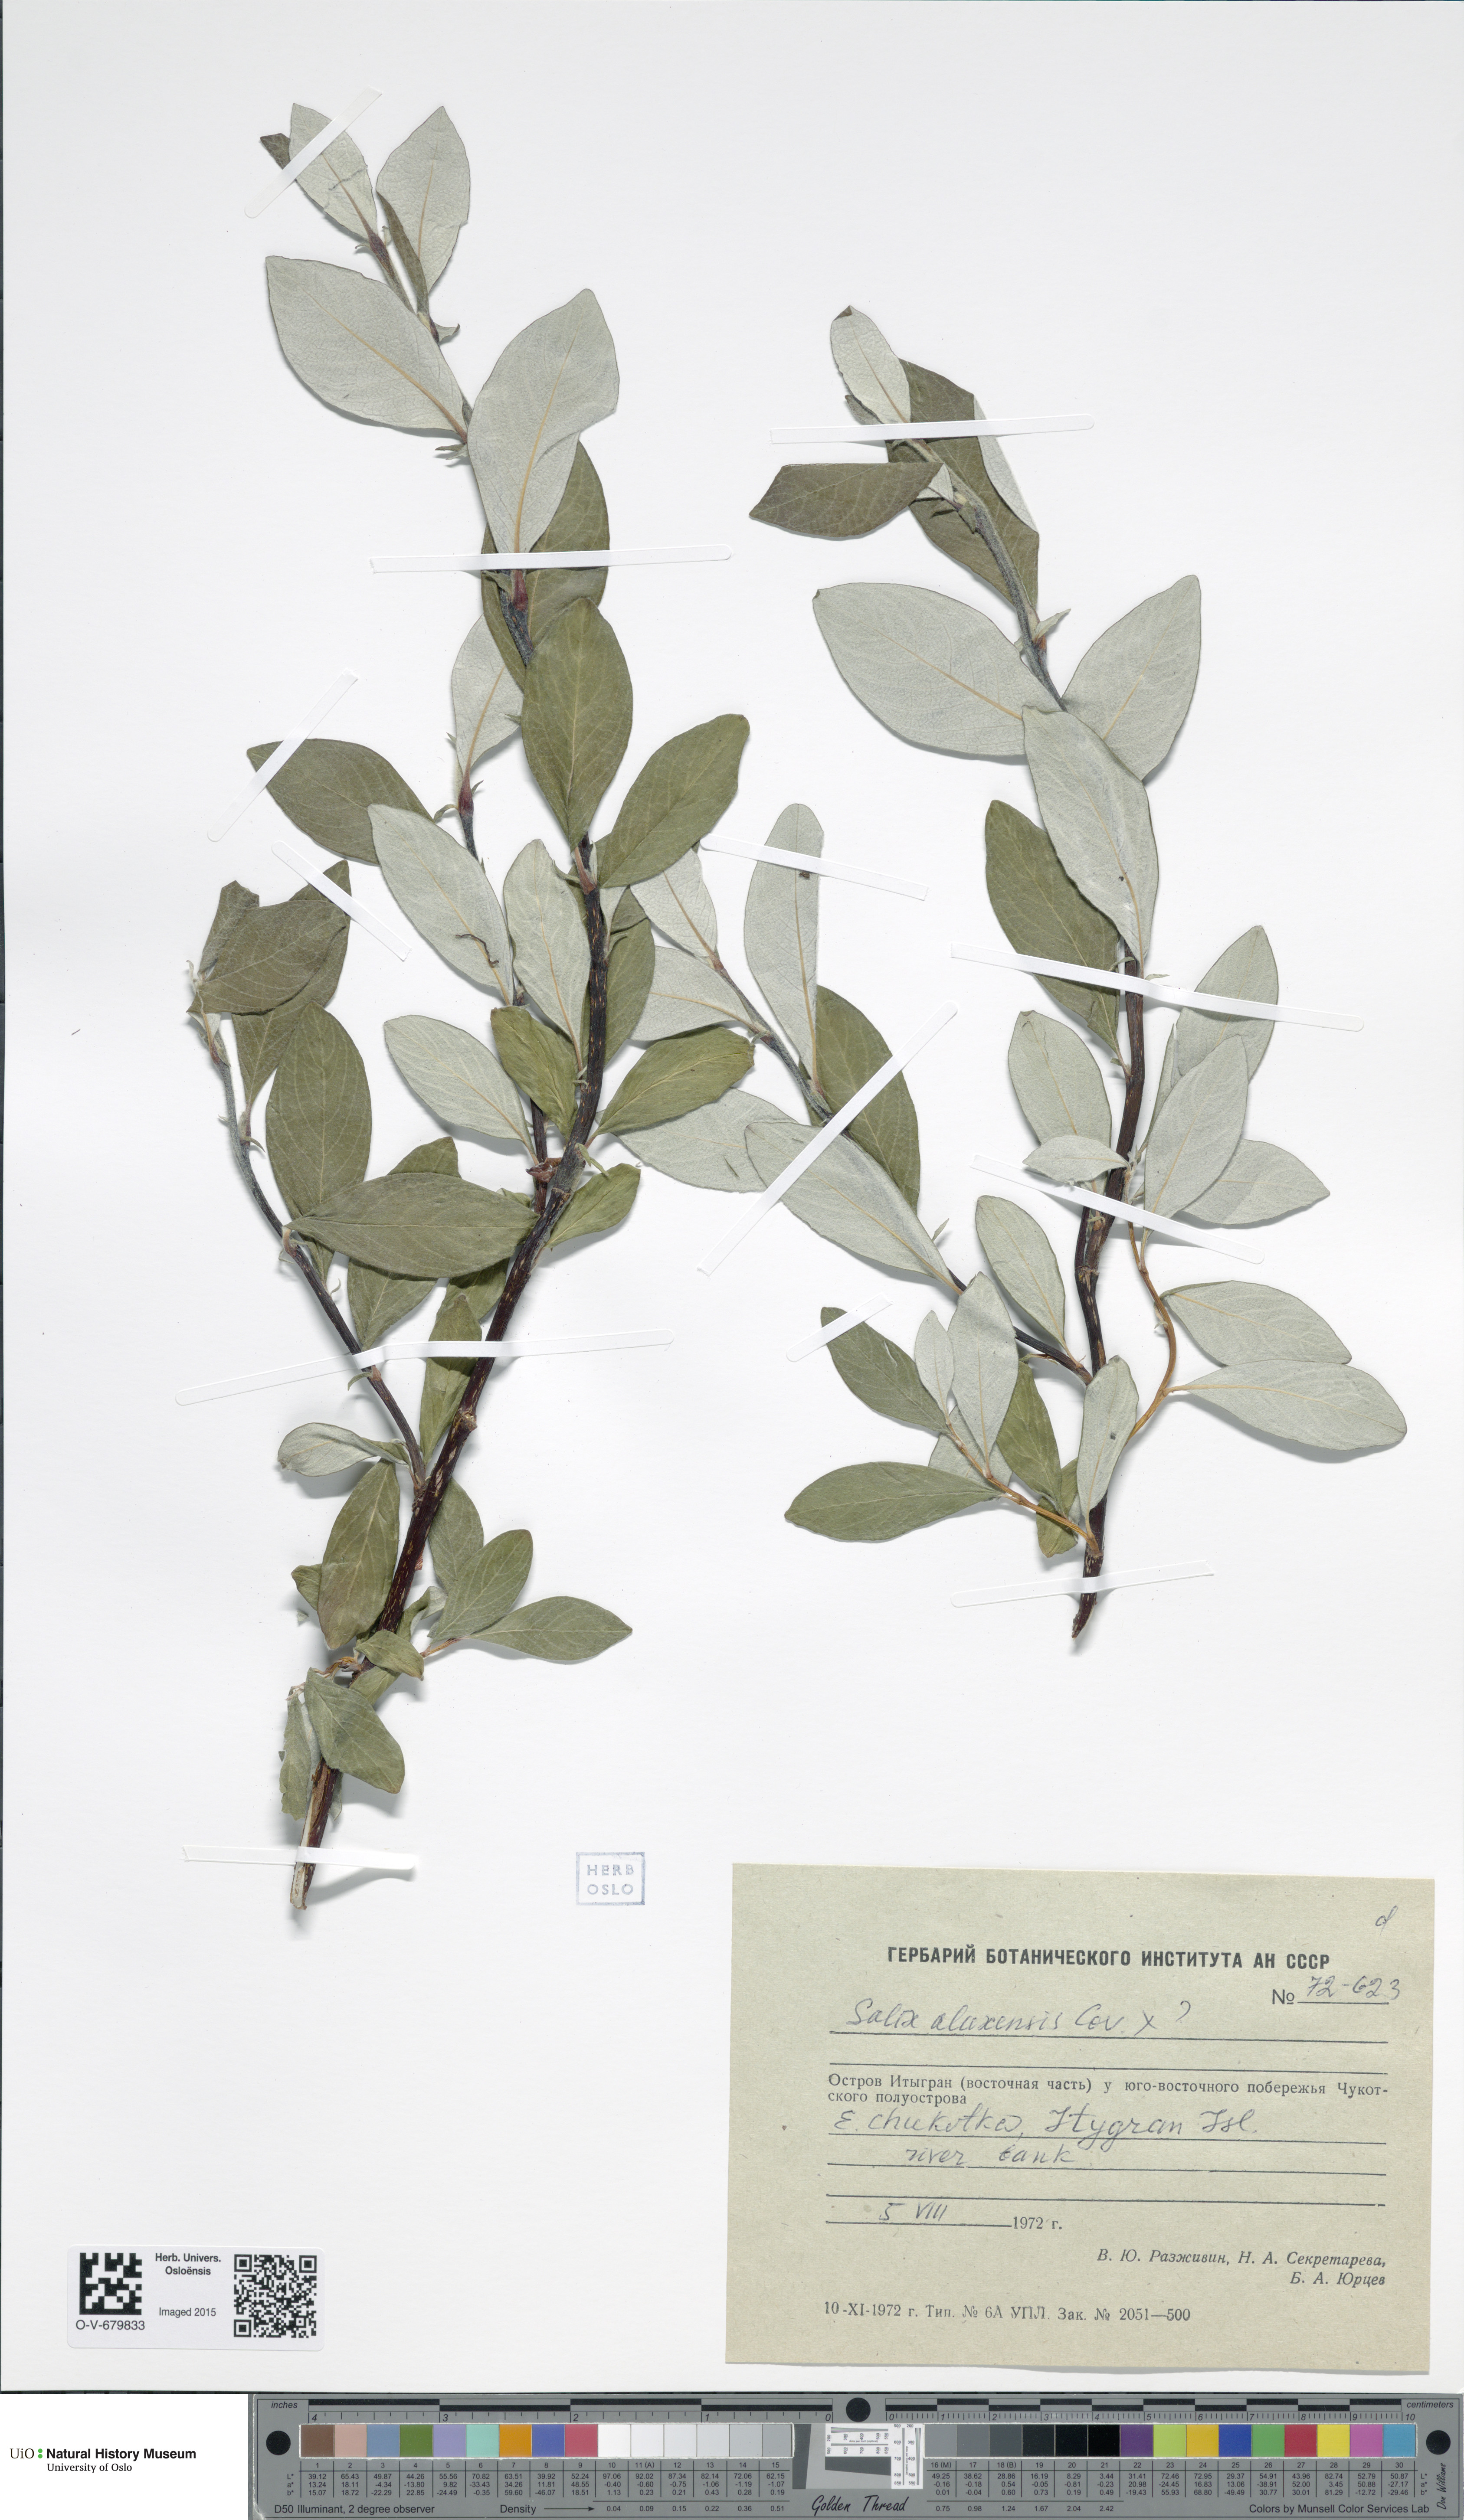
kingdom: Plantae
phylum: Tracheophyta
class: Magnoliopsida
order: Malpighiales
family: Salicaceae
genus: Salix
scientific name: Salix alaxensis
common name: Feltleaf willow
